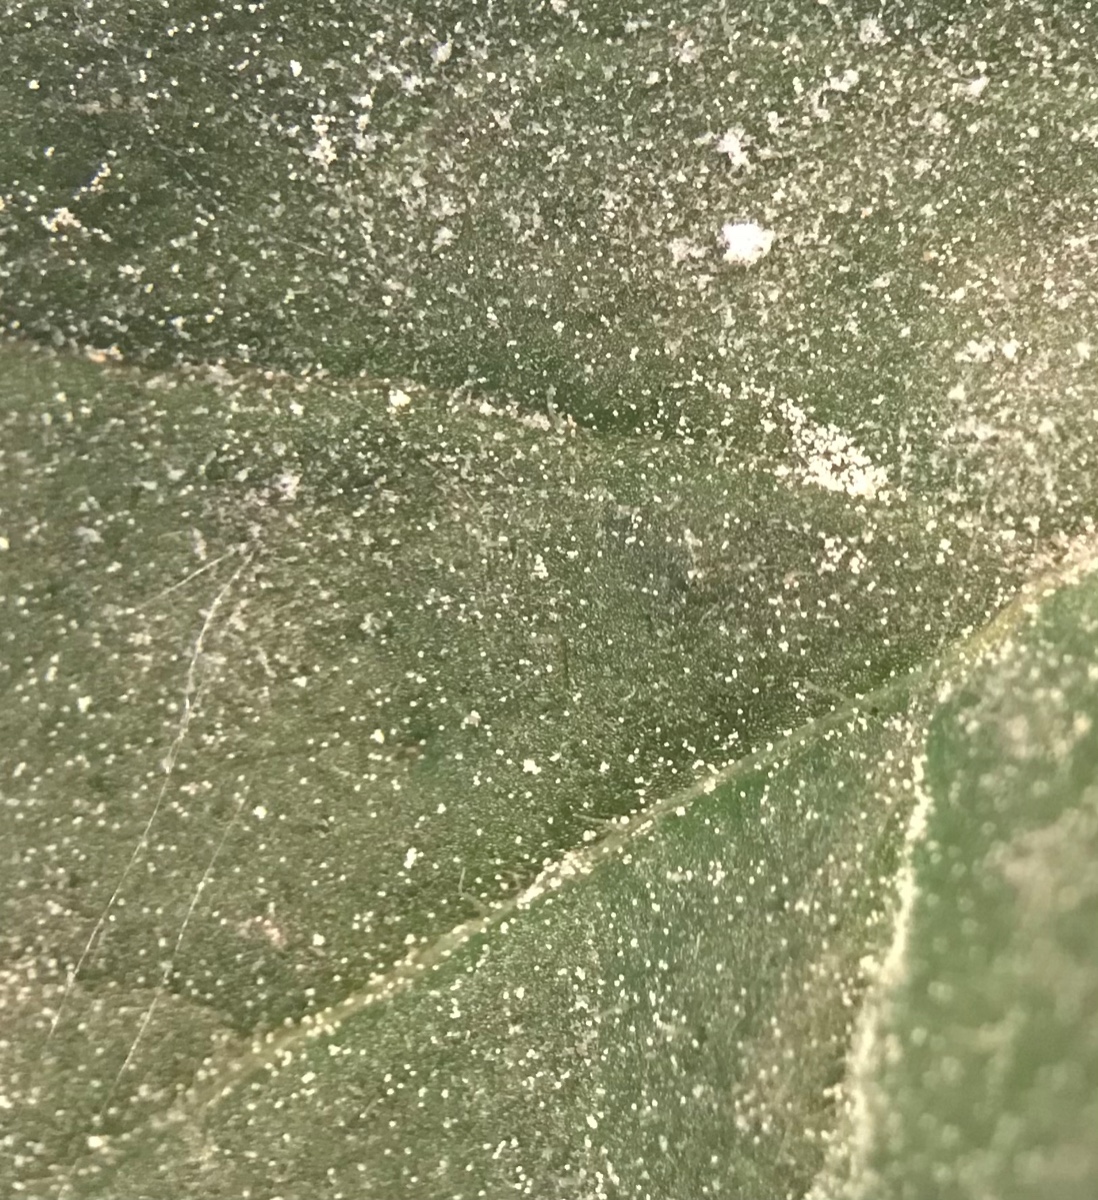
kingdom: Fungi
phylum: Ascomycota
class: Leotiomycetes
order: Helotiales
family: Erysiphaceae
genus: Golovinomyces
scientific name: Golovinomyces cichoracearum
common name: kurvblomst-meldug
